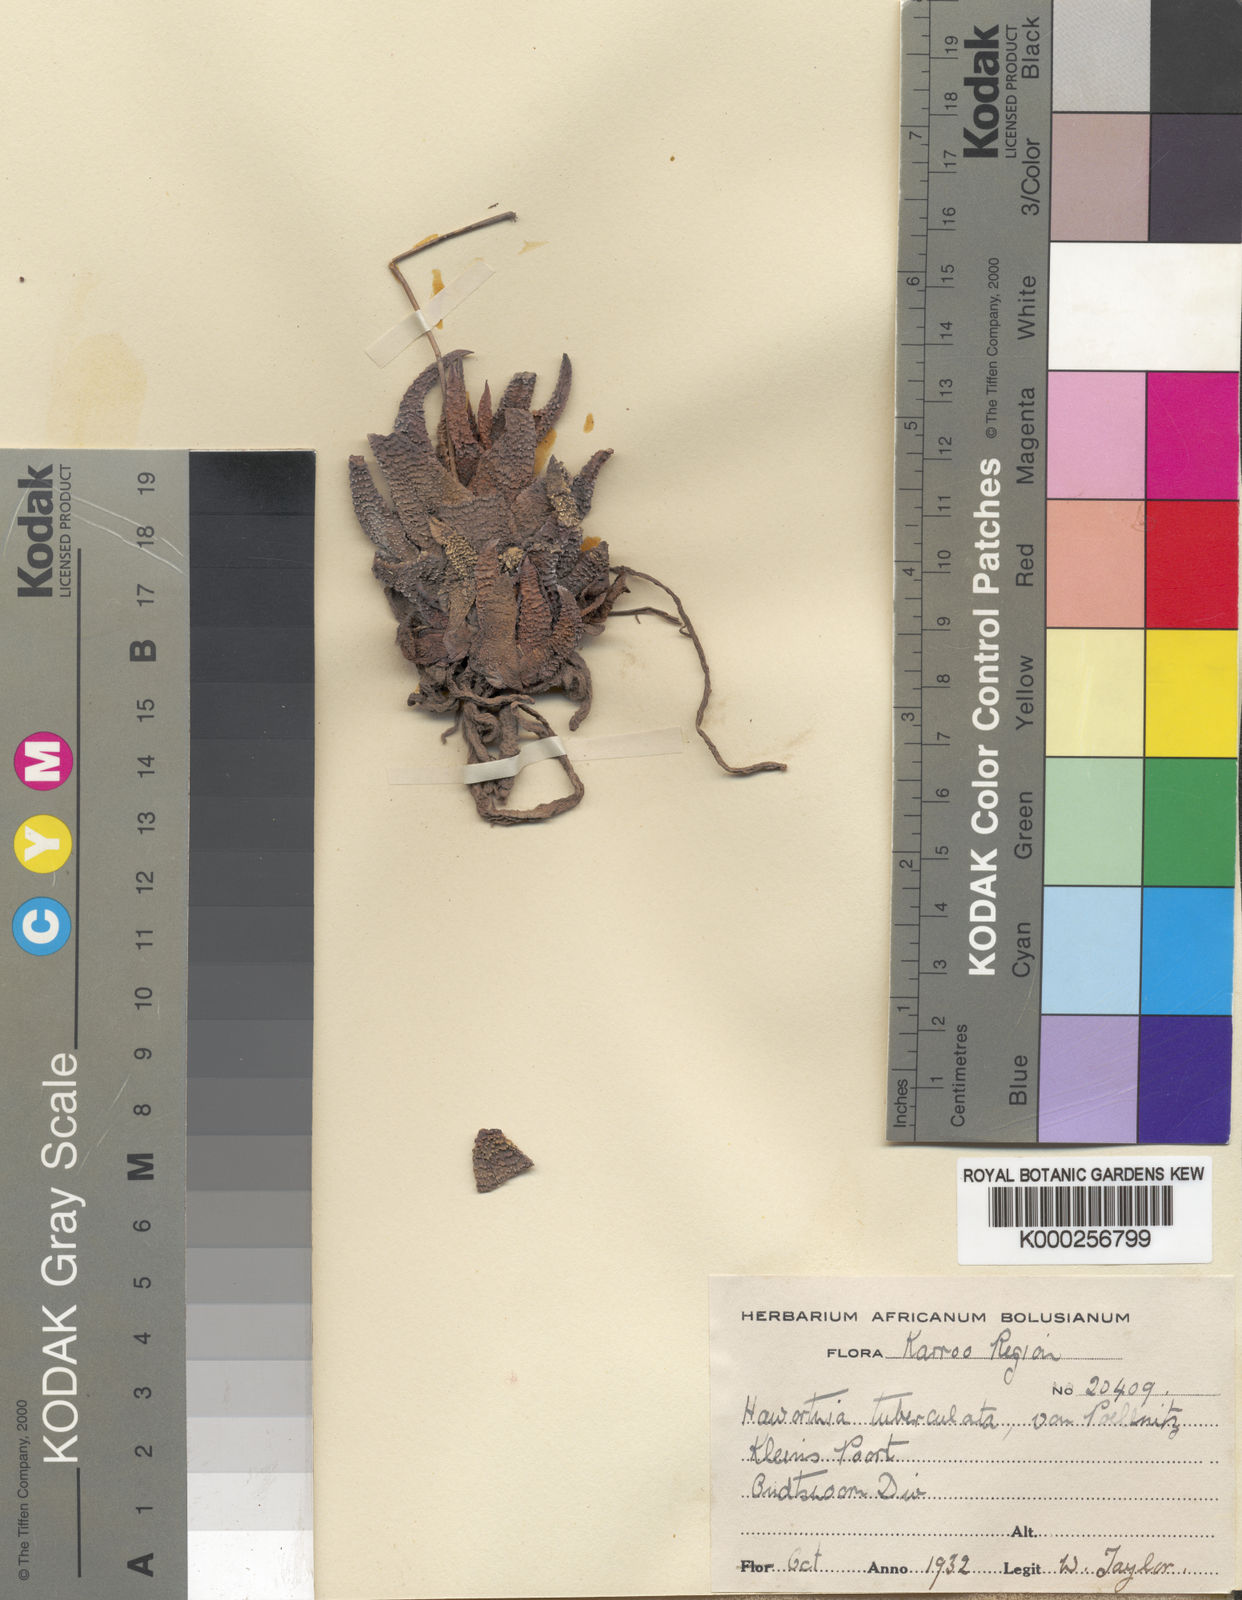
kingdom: Plantae
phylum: Tracheophyta
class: Liliopsida
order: Asparagales
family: Asphodelaceae
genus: Haworthiopsis
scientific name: Haworthiopsis scabra
